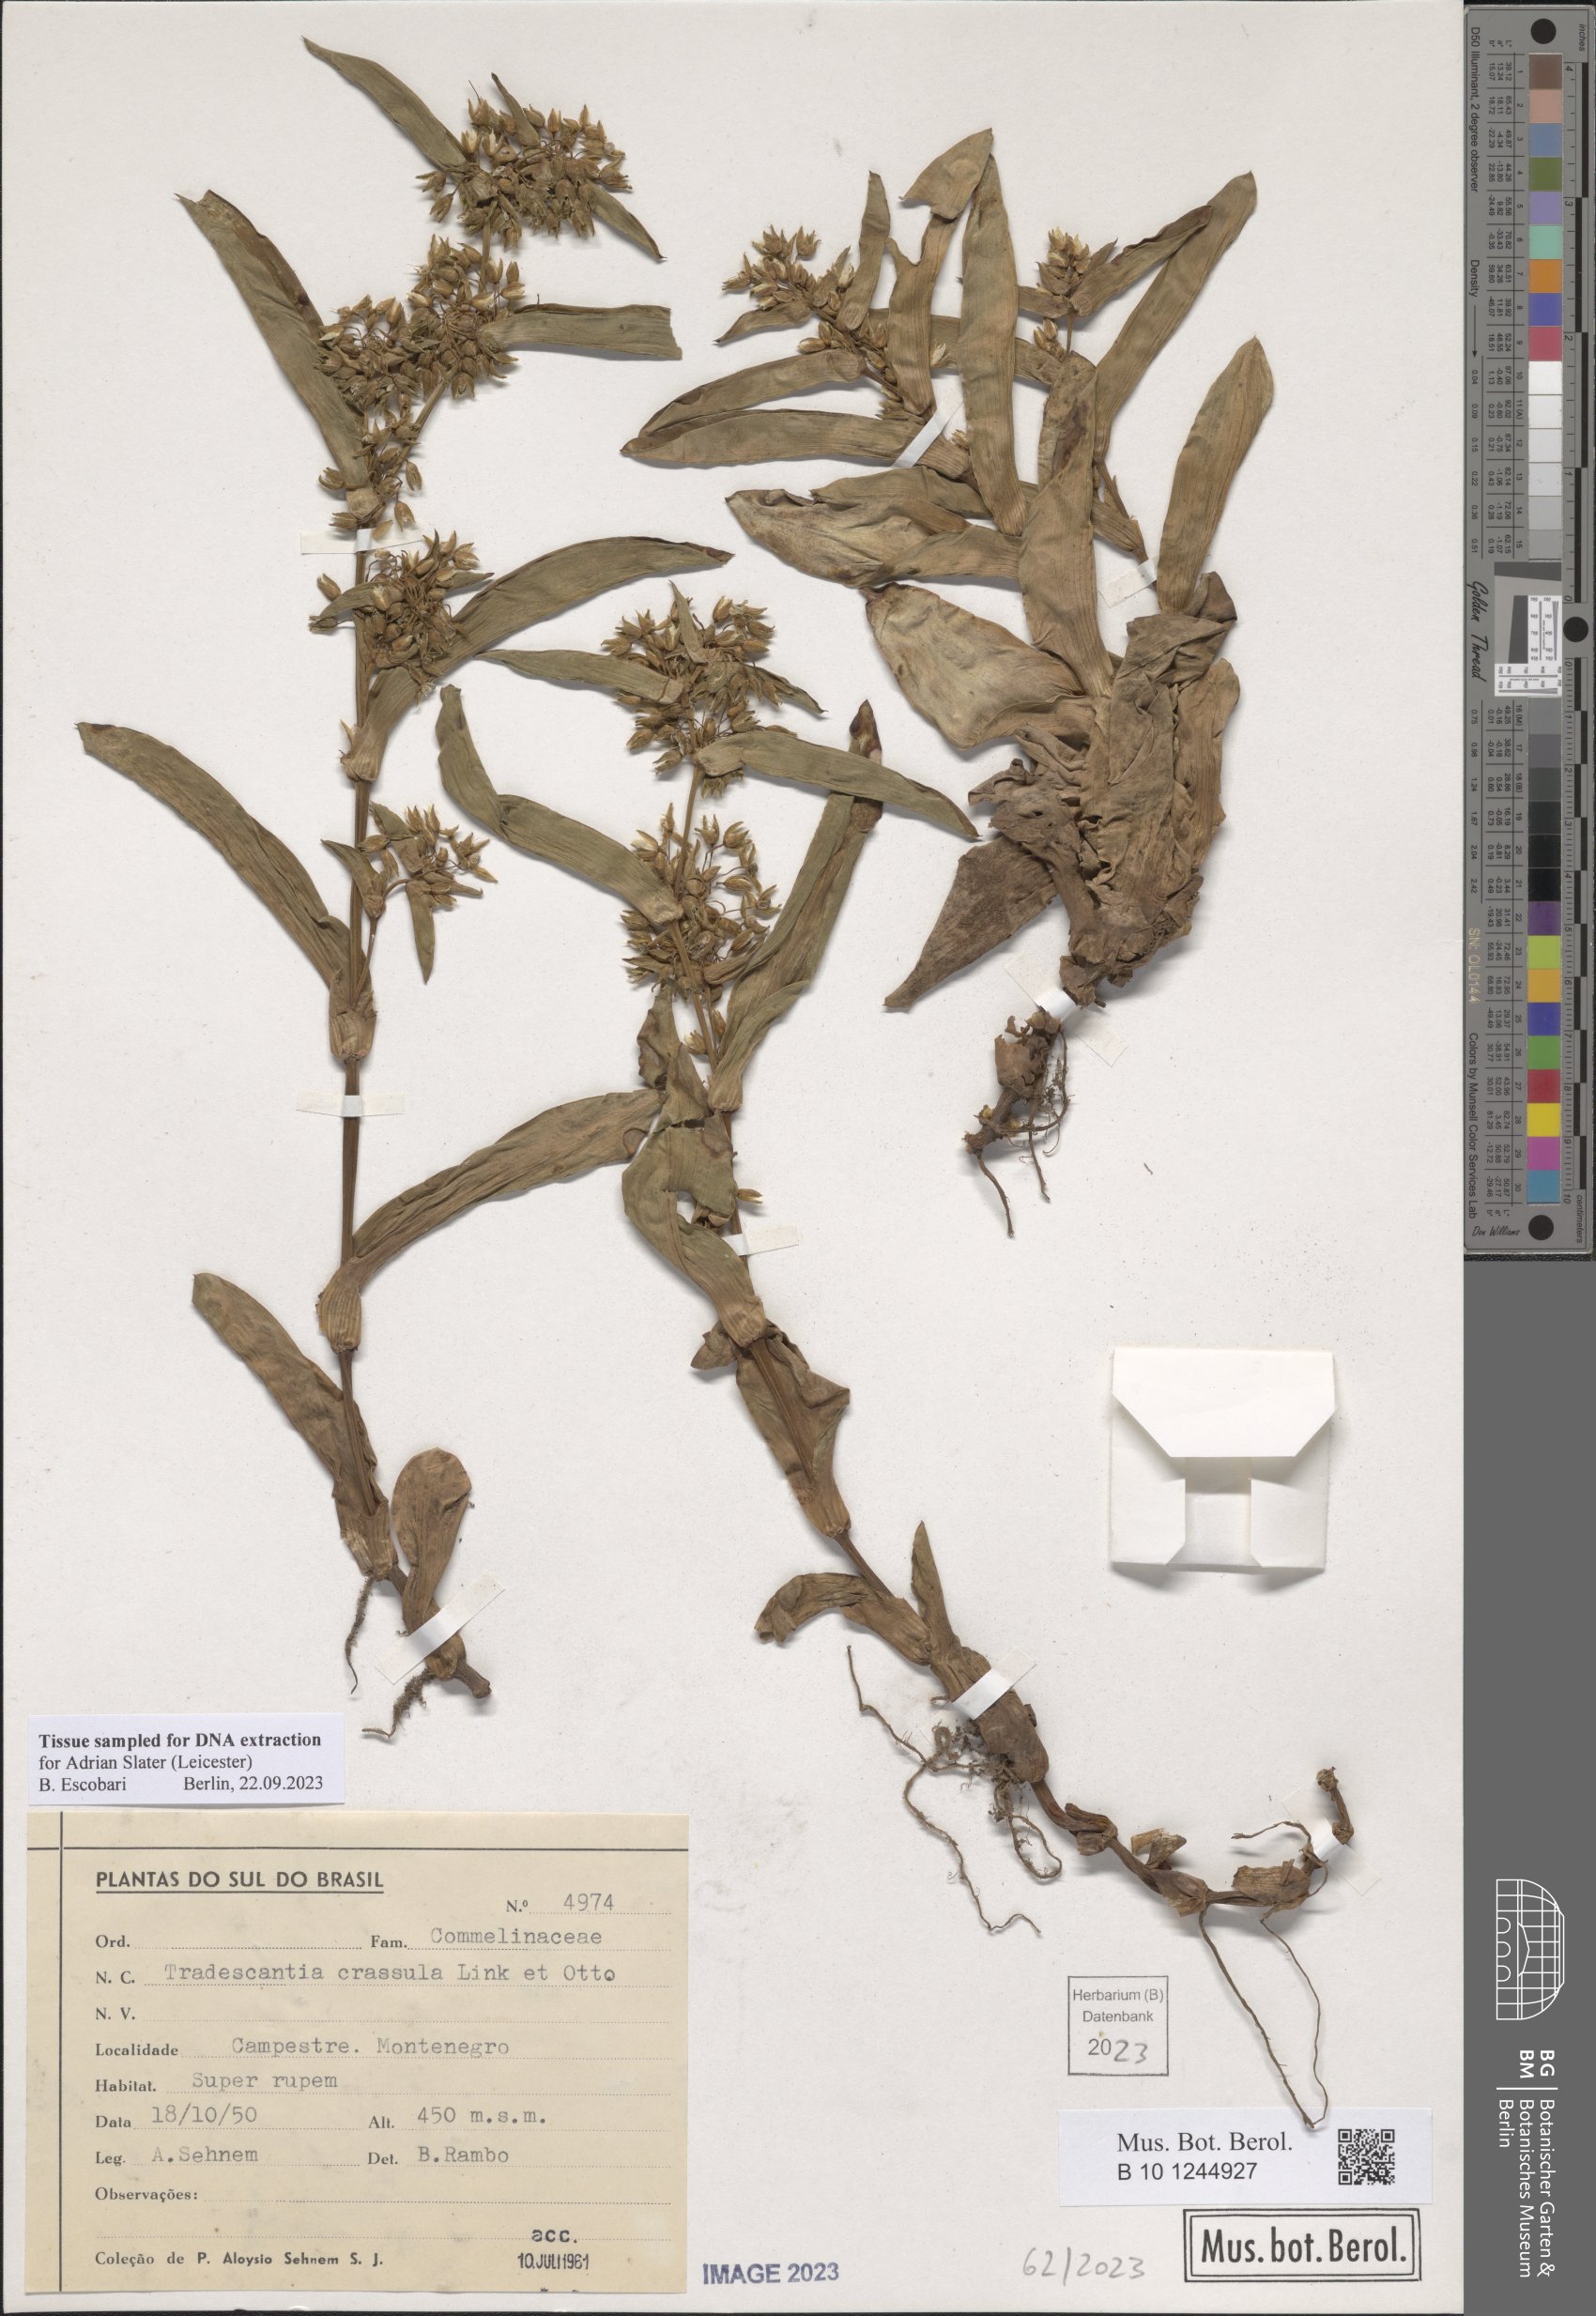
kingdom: Plantae
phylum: Tracheophyta
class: Liliopsida
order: Commelinales
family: Commelinaceae
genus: Tradescantia
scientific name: Tradescantia crassula
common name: Succulent spiderwort
